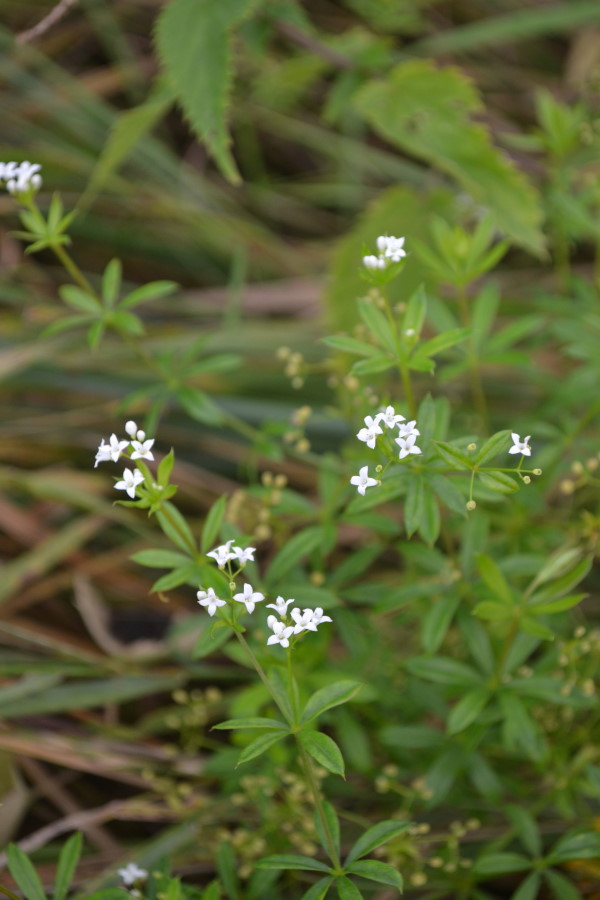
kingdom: Plantae
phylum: Tracheophyta
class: Magnoliopsida
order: Gentianales
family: Rubiaceae
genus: Galium
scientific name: Galium rivale
